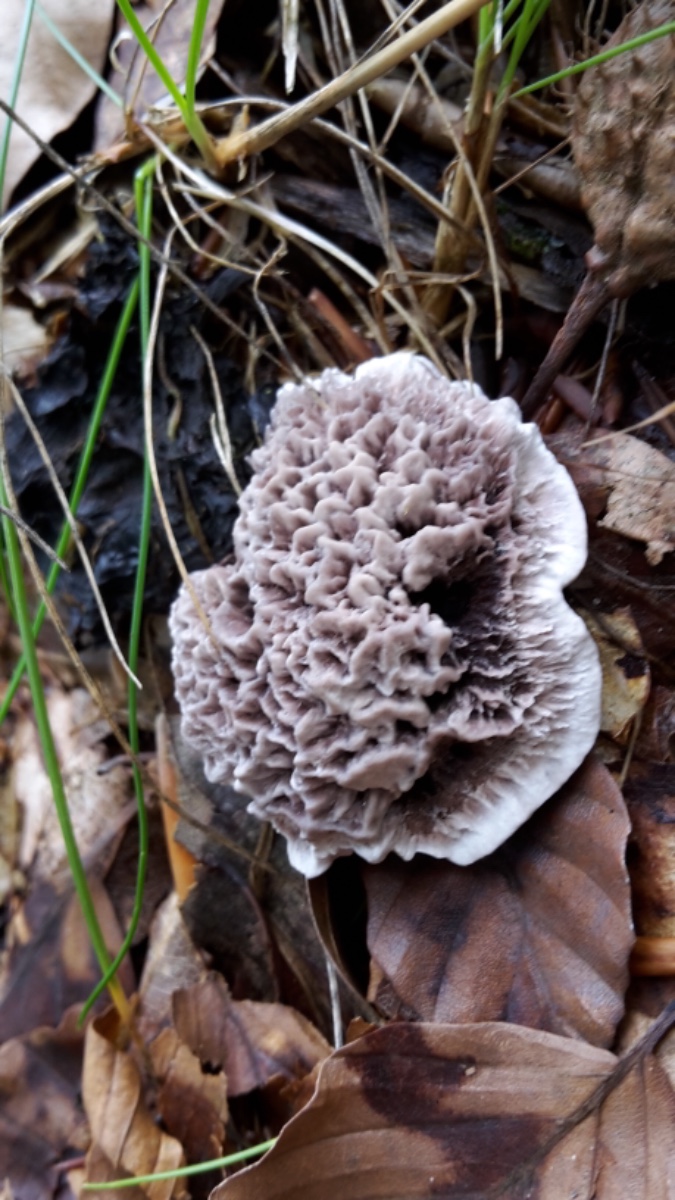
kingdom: Fungi
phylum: Basidiomycota
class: Agaricomycetes
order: Thelephorales
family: Thelephoraceae
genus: Phellodon
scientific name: Phellodon confluens
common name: pjaltet duftpigsvamp
